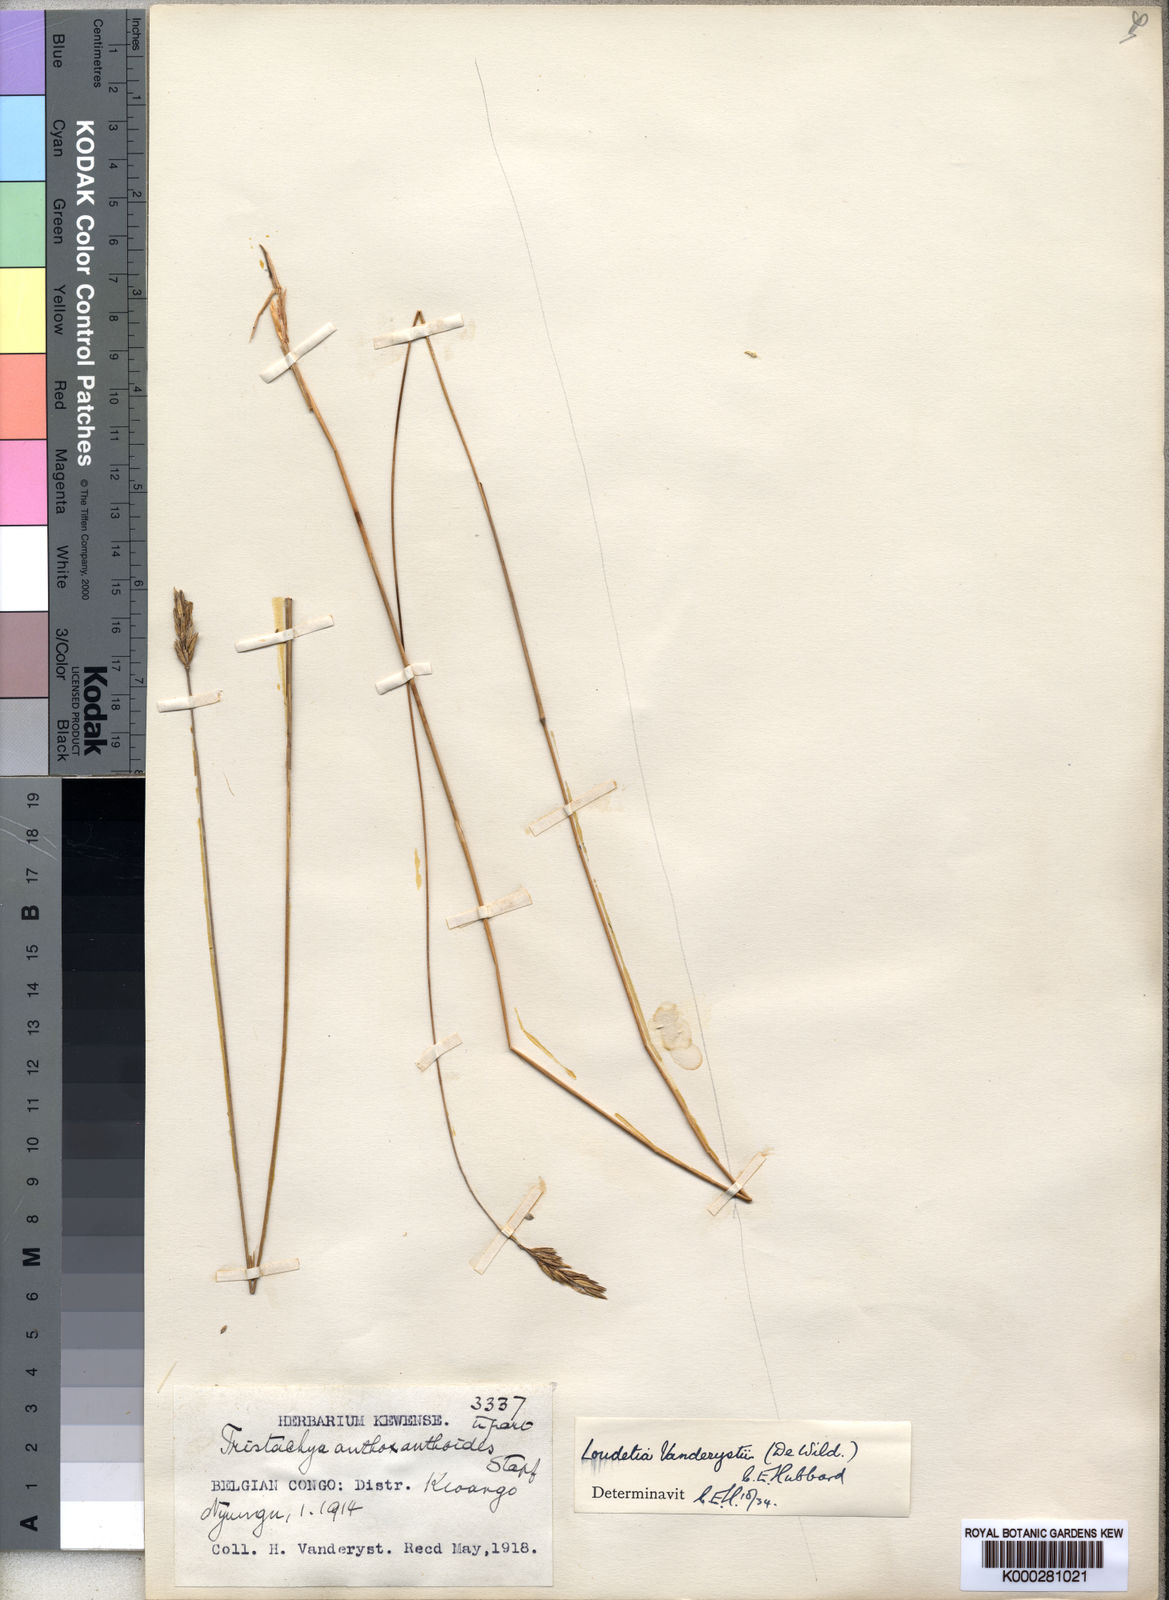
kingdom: Plantae
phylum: Tracheophyta
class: Liliopsida
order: Poales
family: Poaceae
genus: Loudetia
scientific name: Loudetia vanderystii
